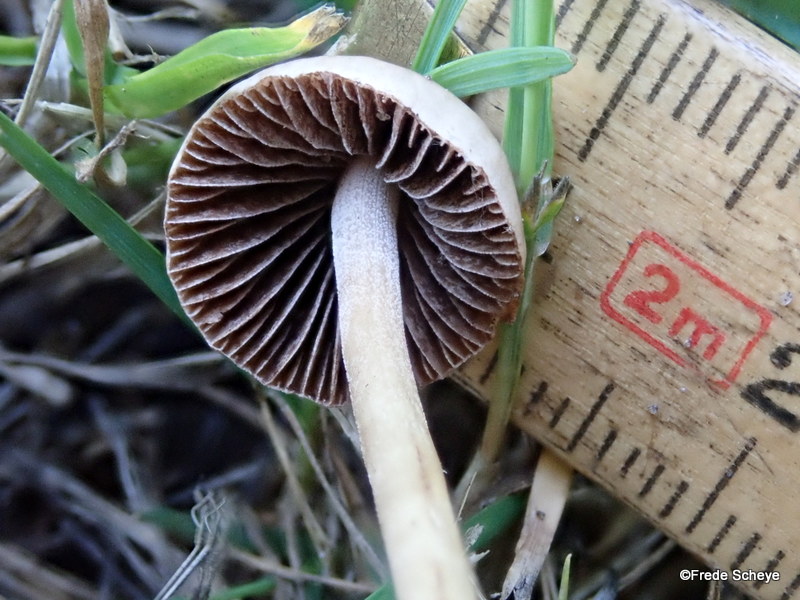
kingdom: Fungi
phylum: Basidiomycota
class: Agaricomycetes
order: Agaricales
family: Bolbitiaceae
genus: Panaeolina
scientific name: Panaeolina foenisecii
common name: høslætsvamp
